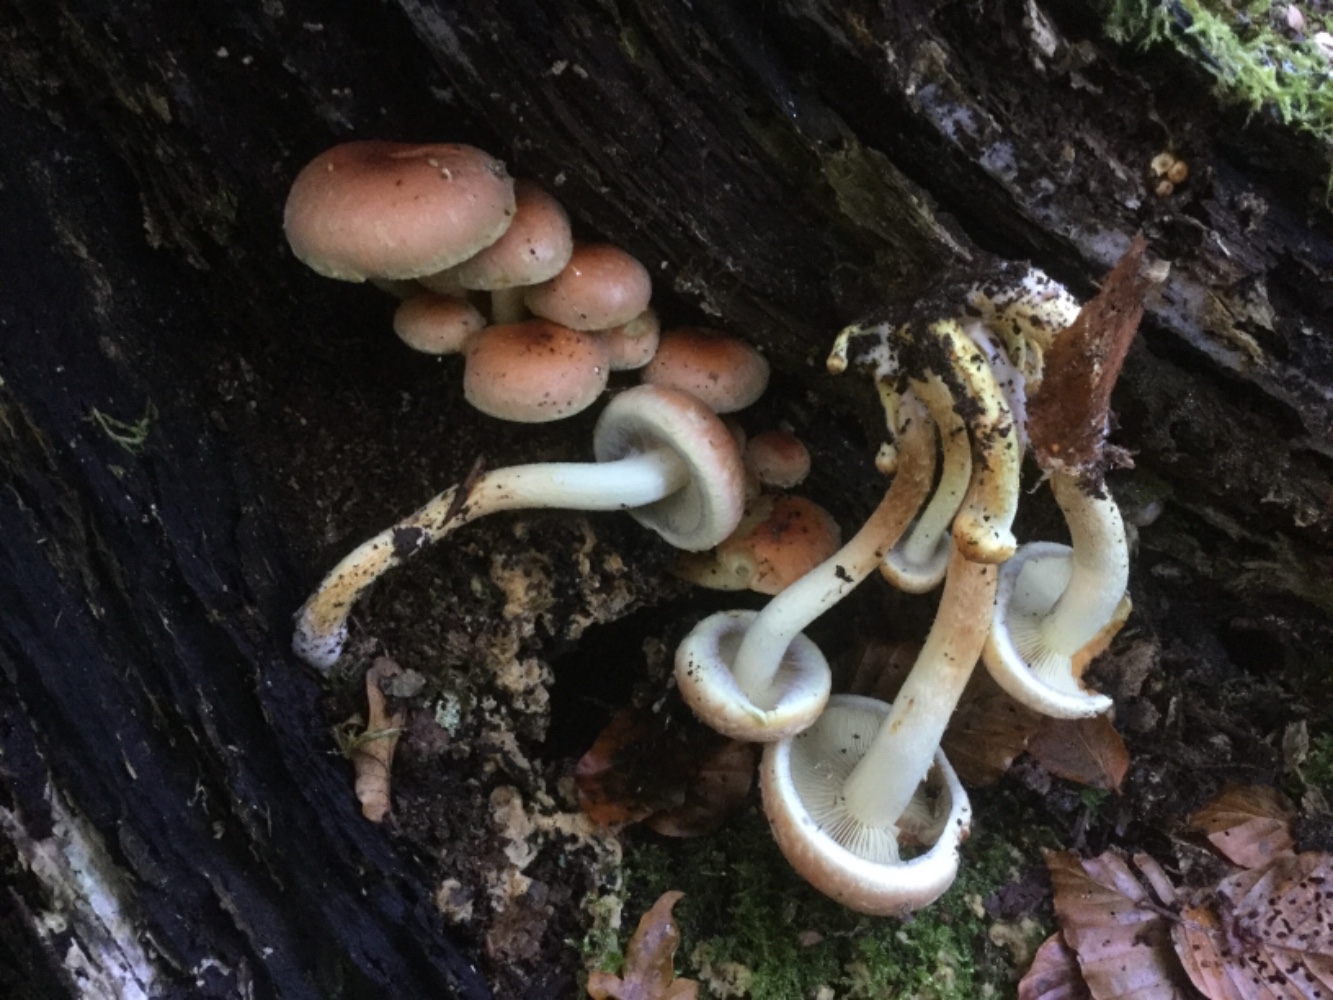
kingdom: Fungi
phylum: Basidiomycota
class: Agaricomycetes
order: Agaricales
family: Strophariaceae
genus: Hypholoma
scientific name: Hypholoma lateritium
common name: teglrød svovlhat
